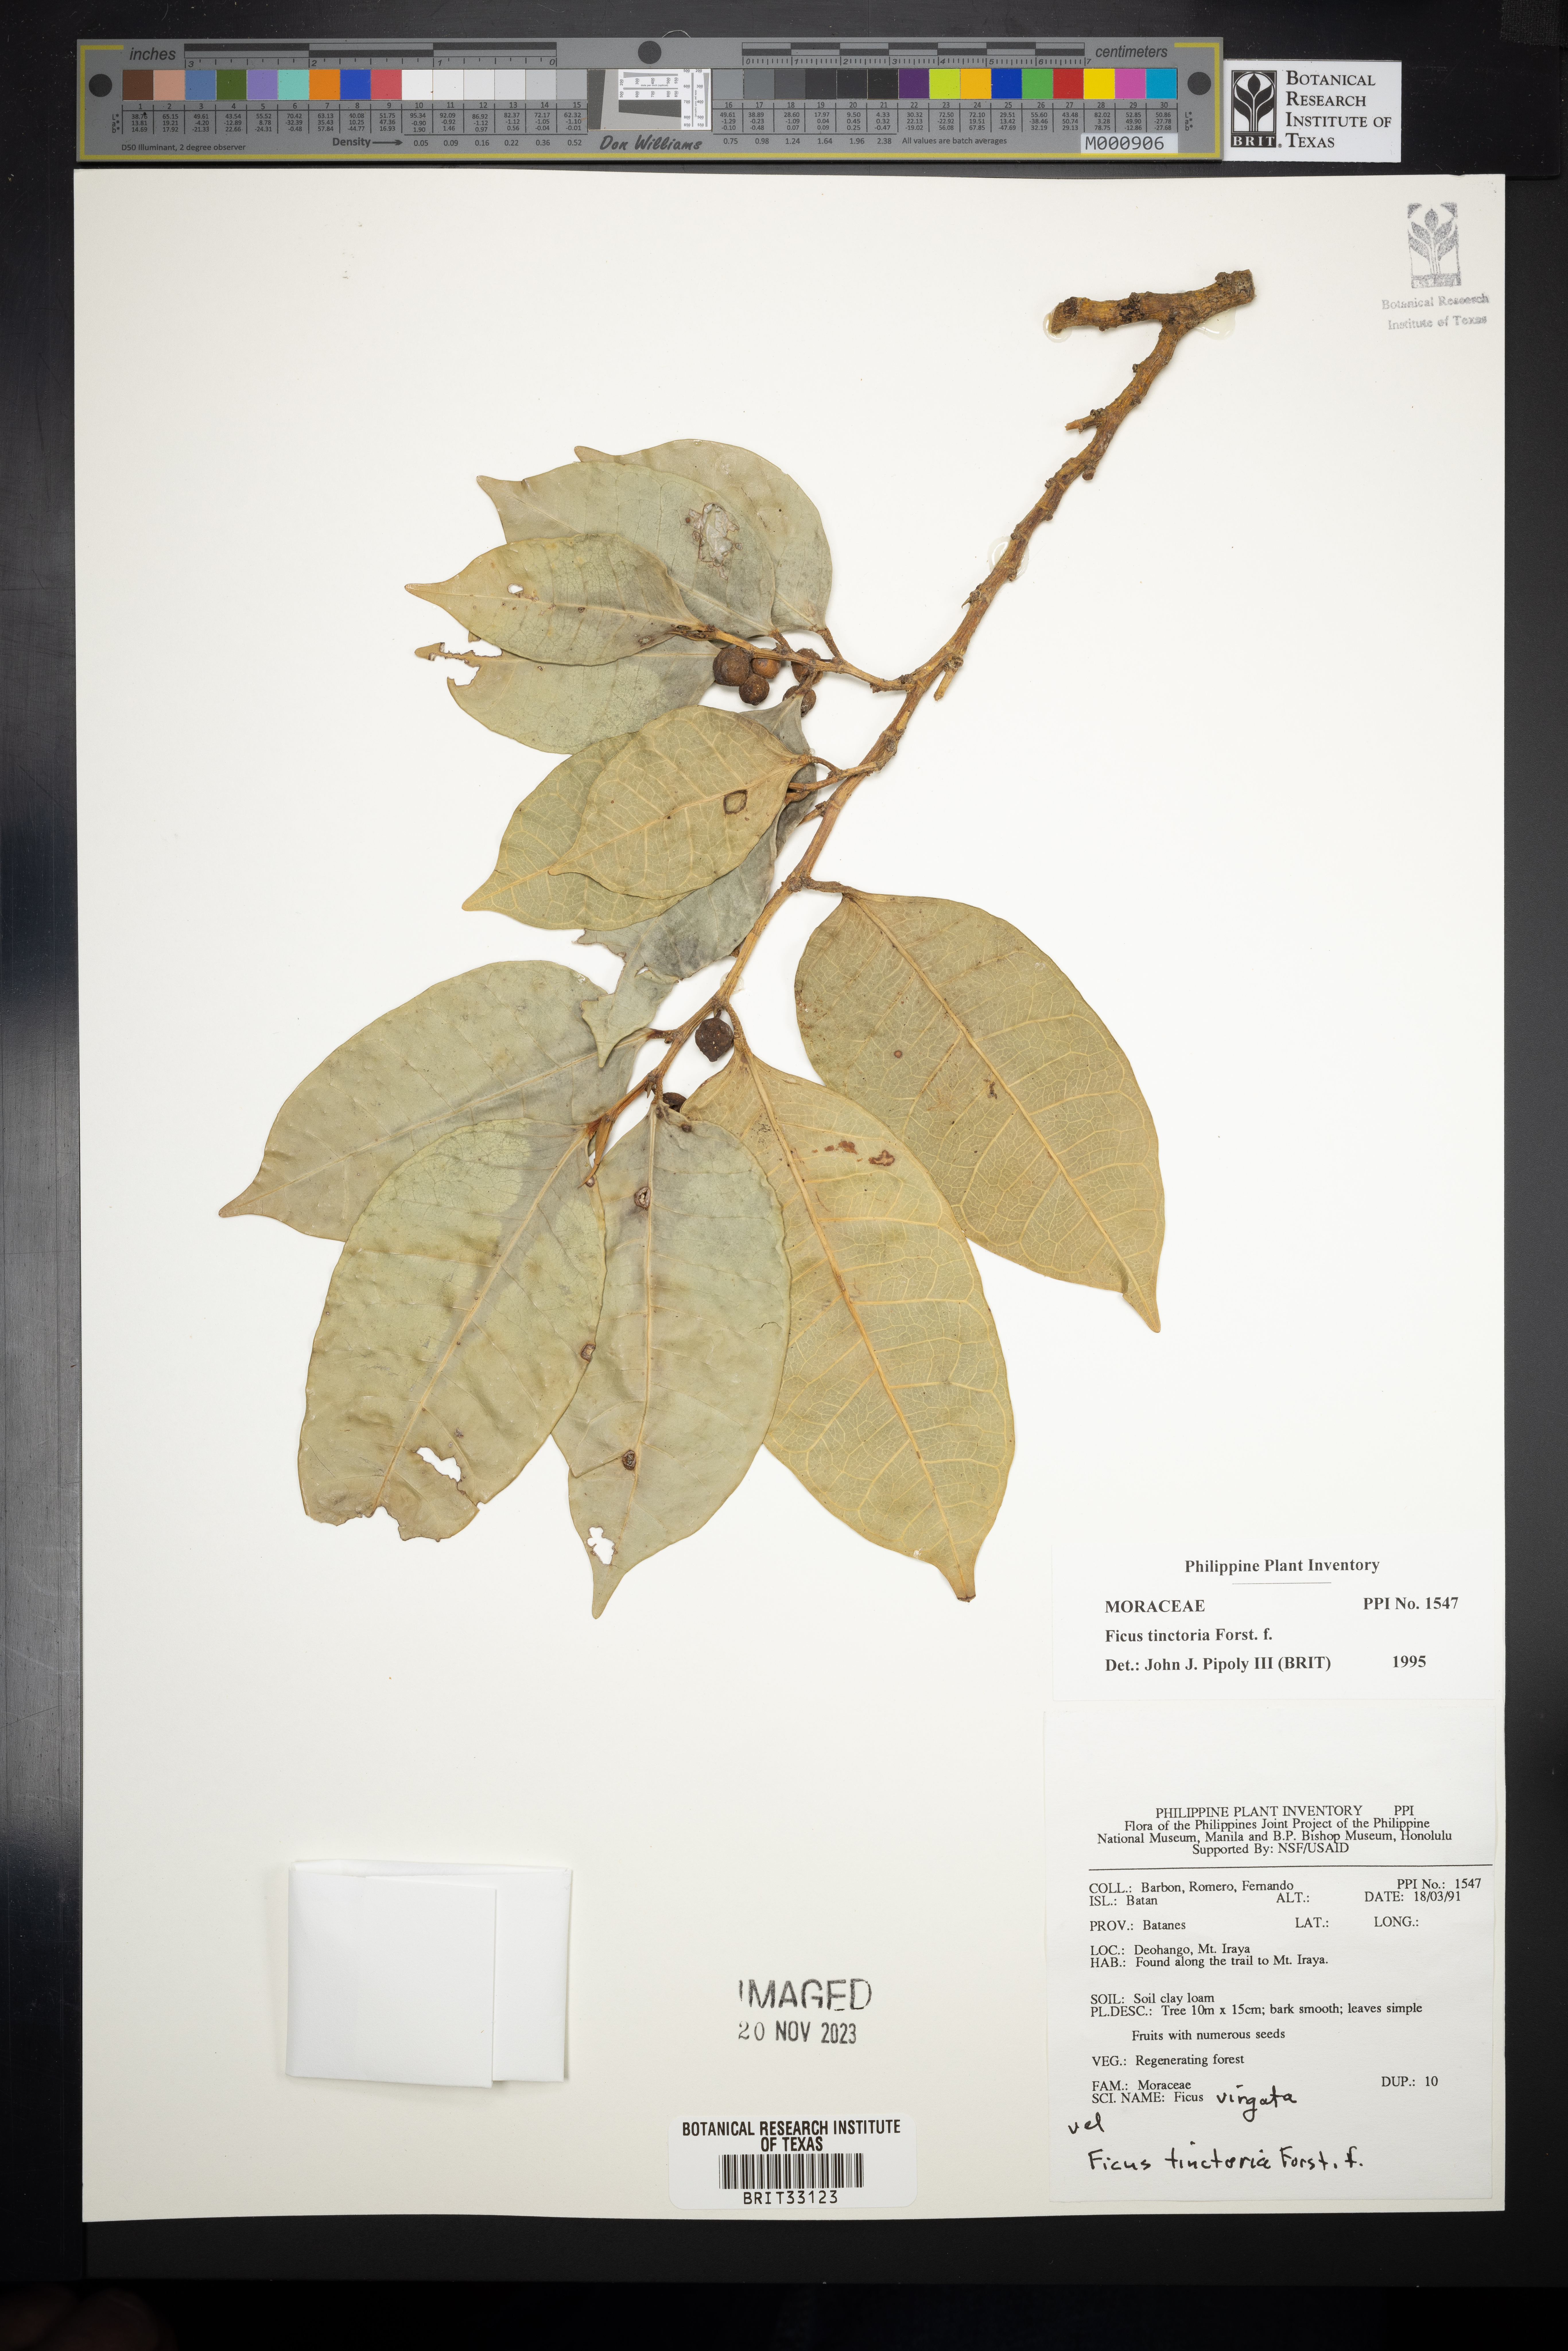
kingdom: Plantae
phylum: Tracheophyta
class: Magnoliopsida
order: Rosales
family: Moraceae
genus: Ficus
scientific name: Ficus tinctoria
